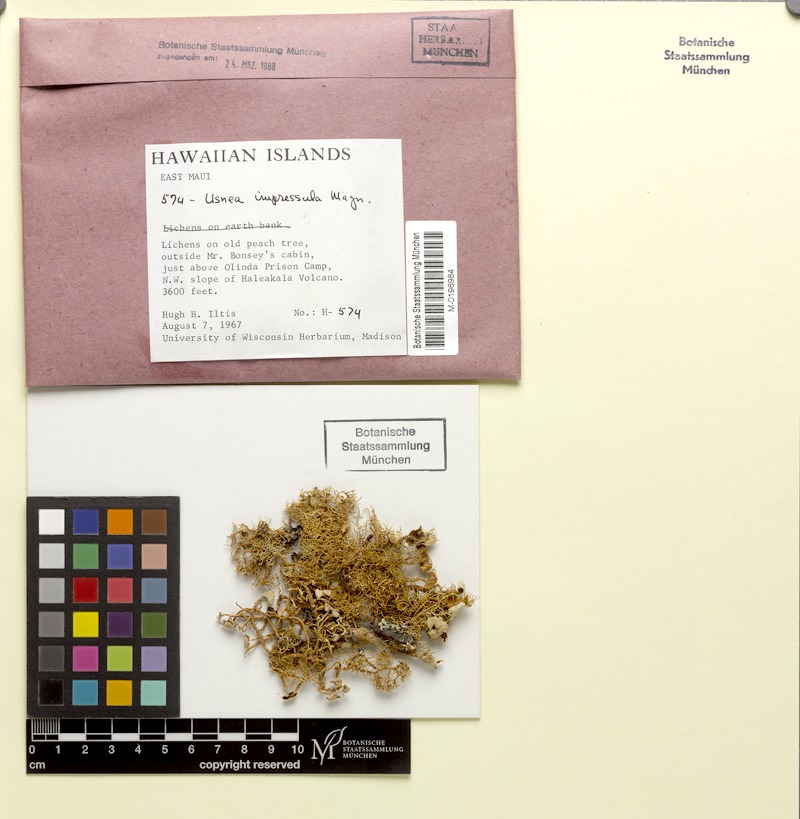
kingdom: Fungi
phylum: Ascomycota
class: Lecanoromycetes
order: Lecanorales
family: Parmeliaceae
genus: Usnea
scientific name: Usnea
